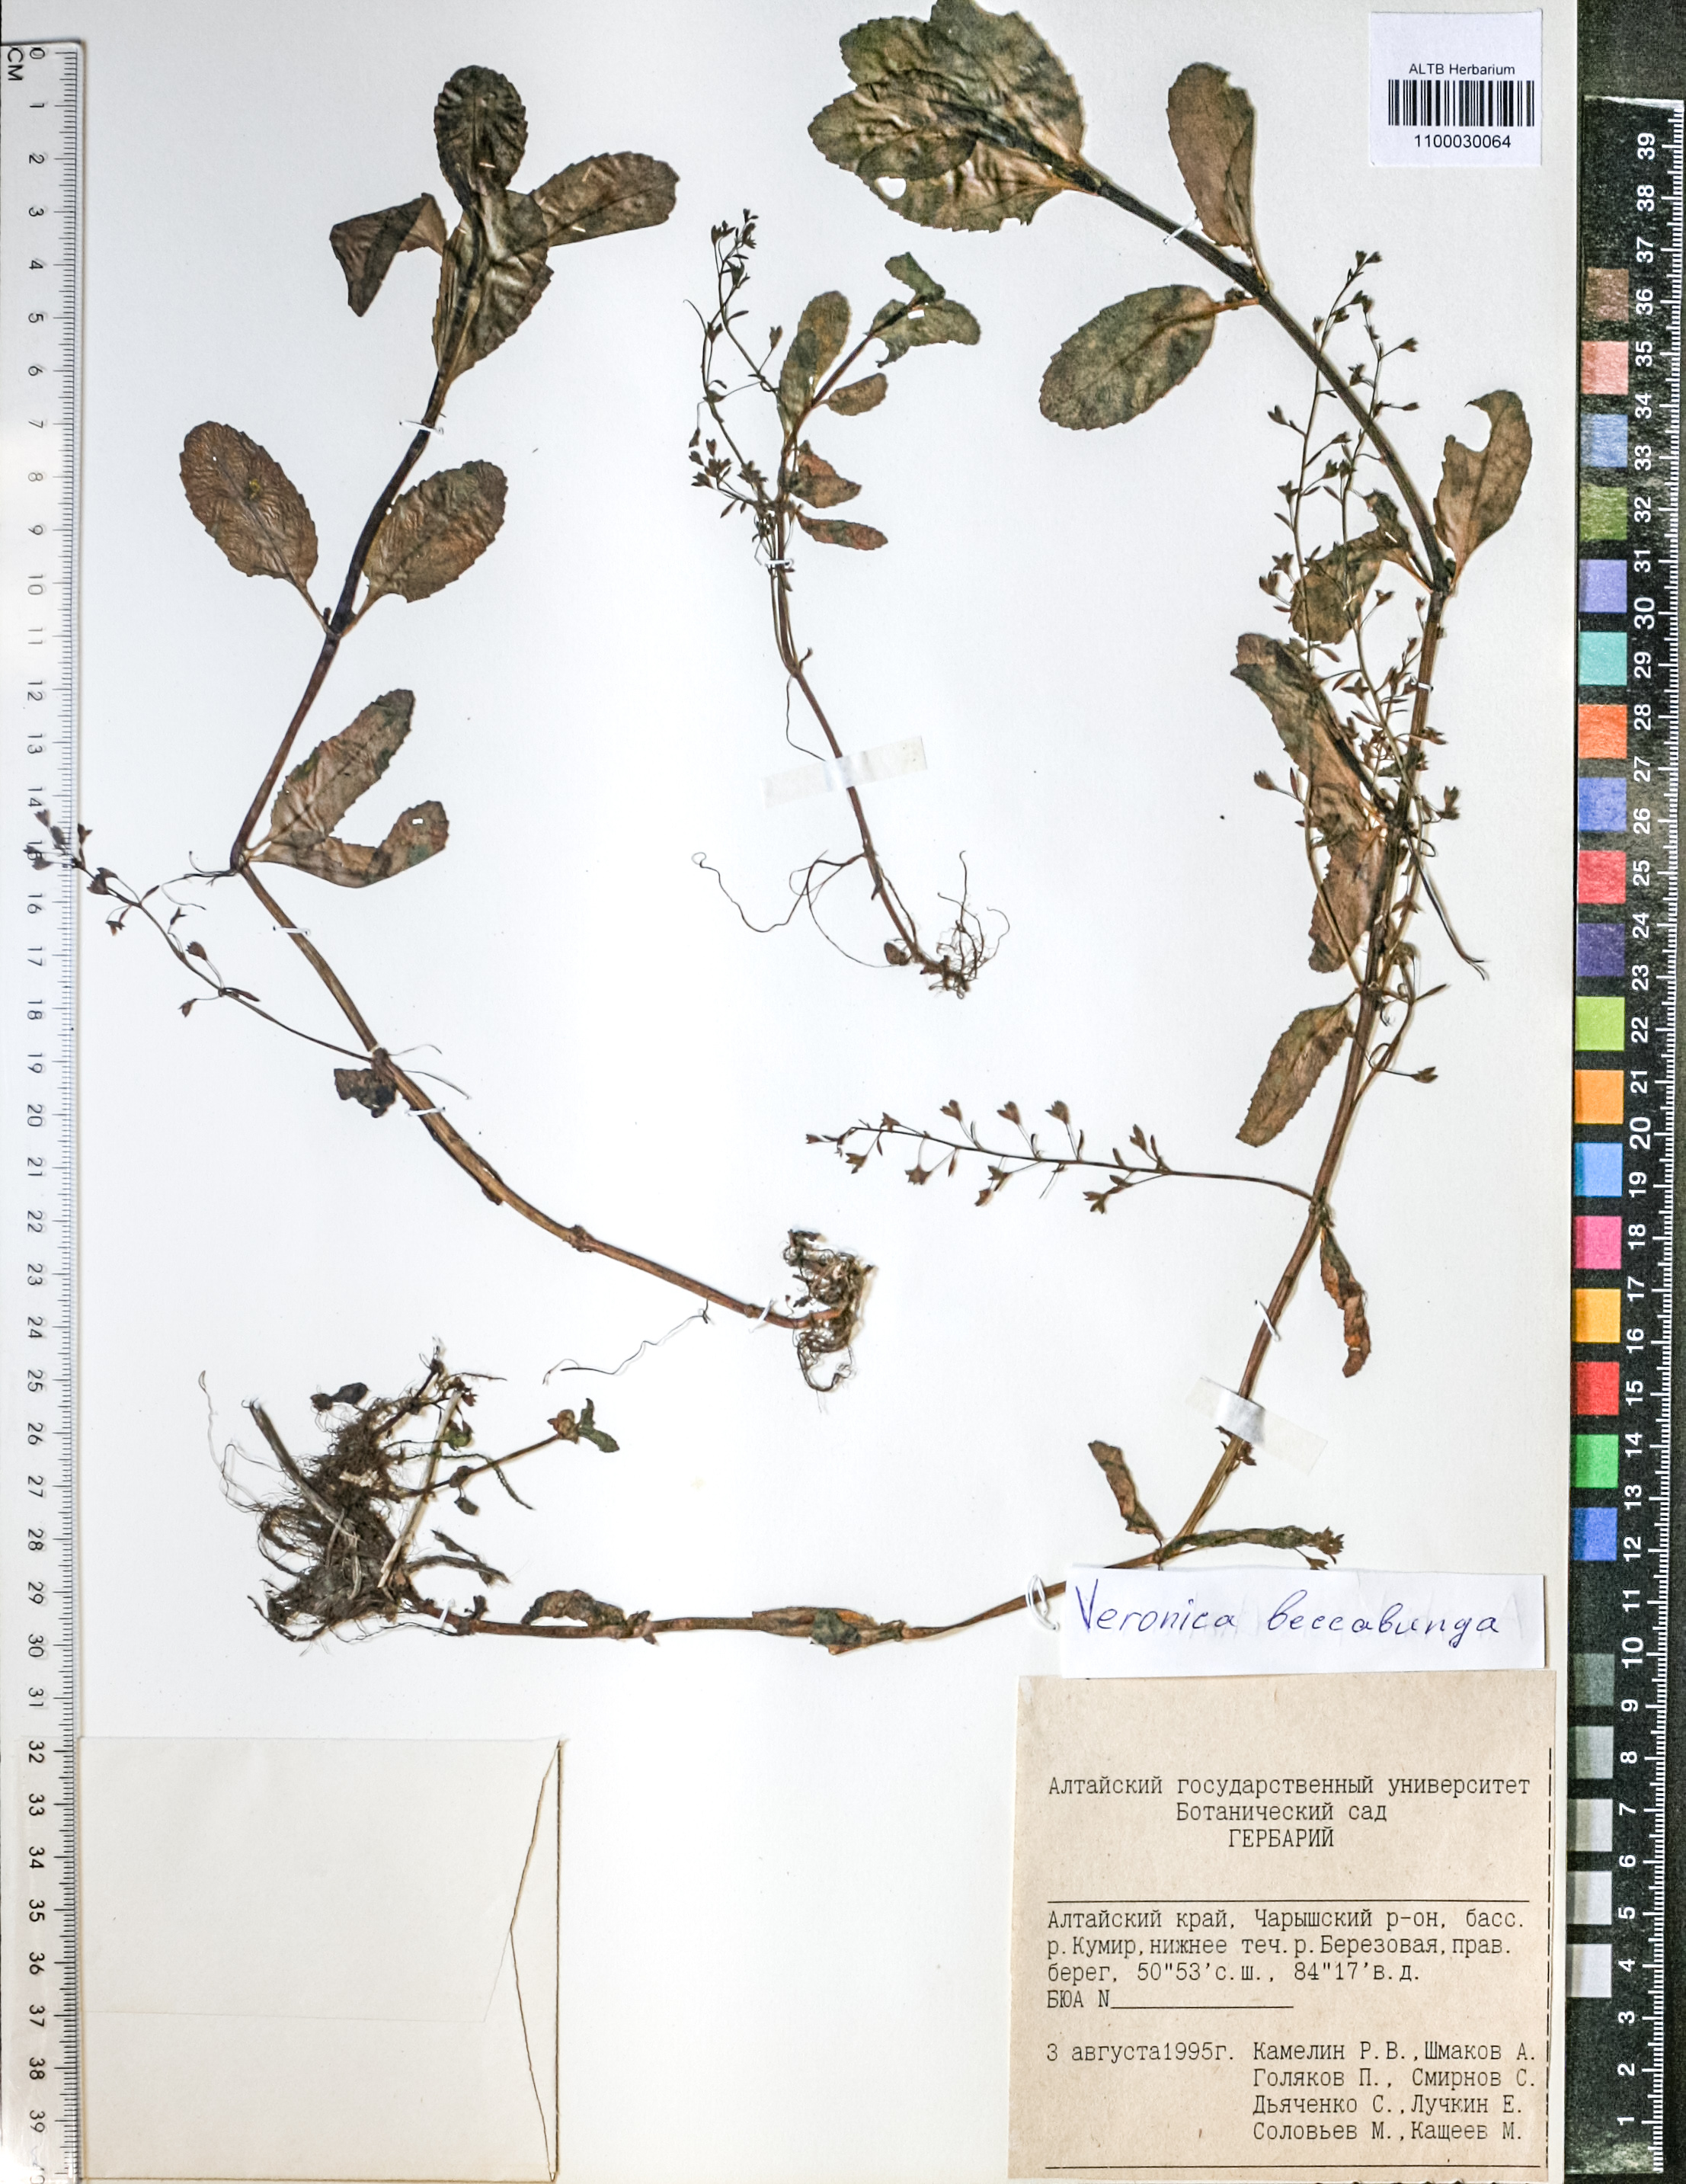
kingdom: Plantae
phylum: Tracheophyta
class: Magnoliopsida
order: Lamiales
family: Plantaginaceae
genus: Veronica
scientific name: Veronica beccabunga
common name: Brooklime
